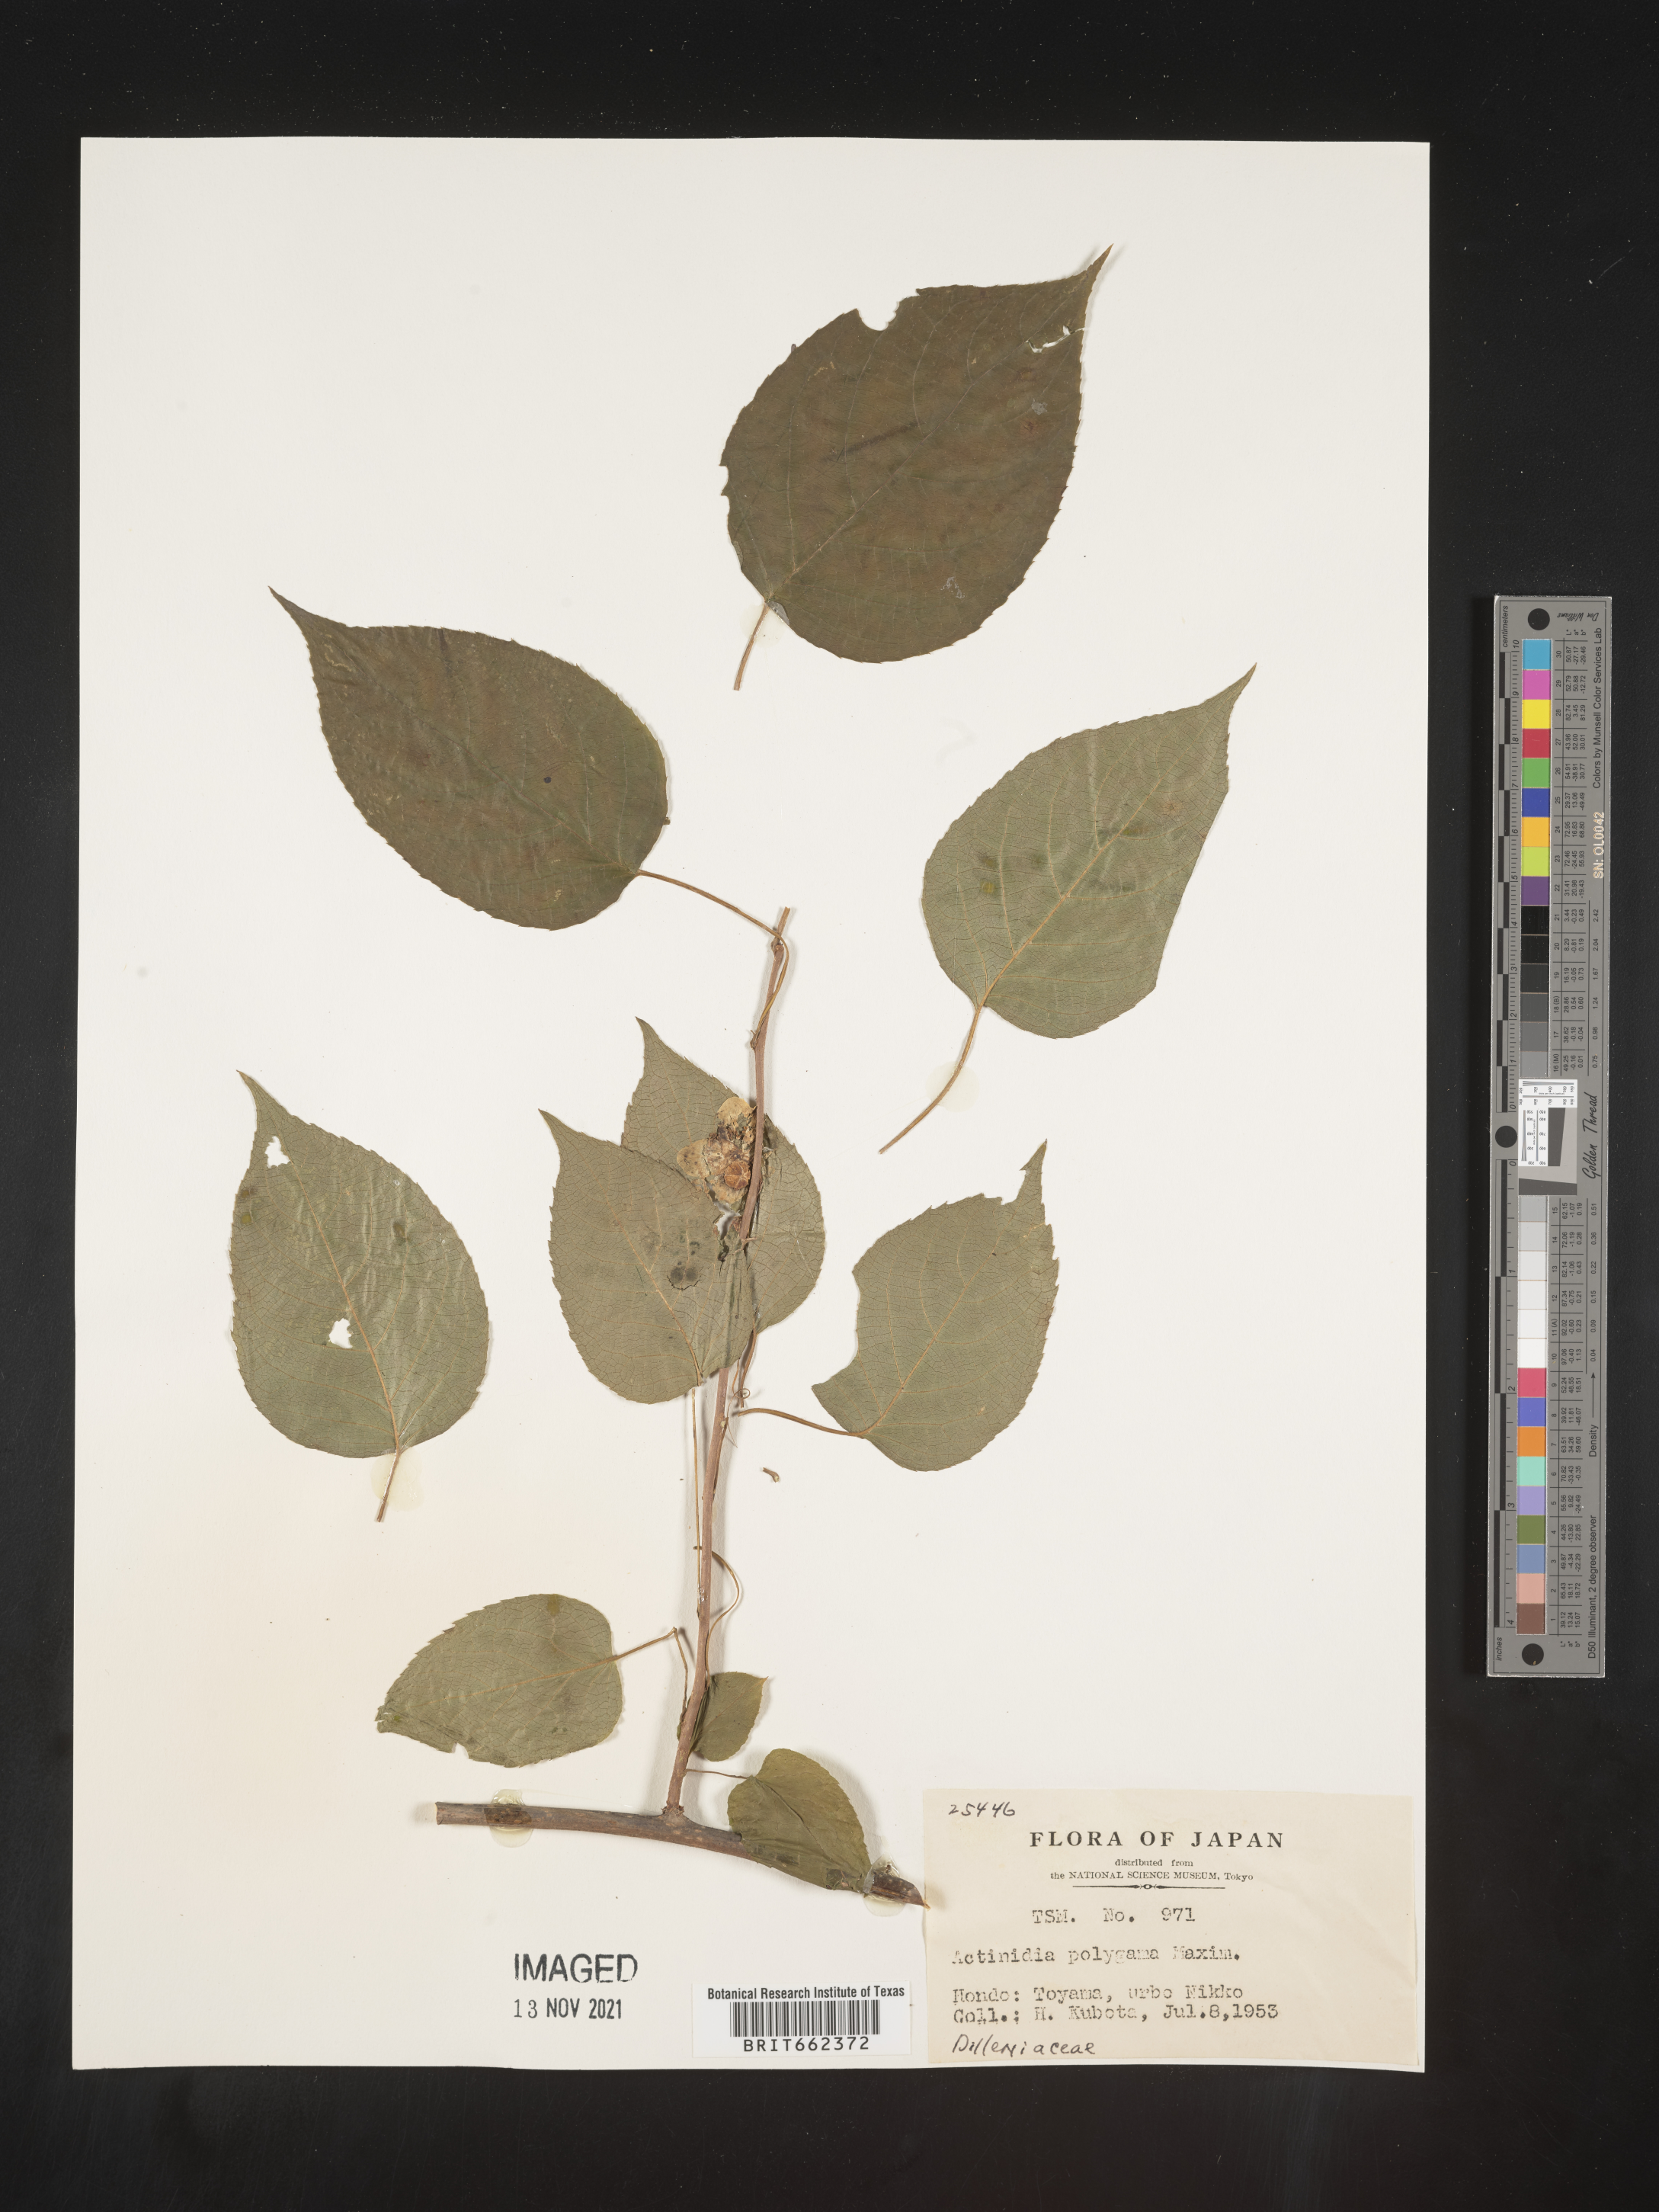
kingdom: Plantae
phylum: Tracheophyta
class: Magnoliopsida
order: Ericales
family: Actinidiaceae
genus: Actinidia
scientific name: Actinidia
